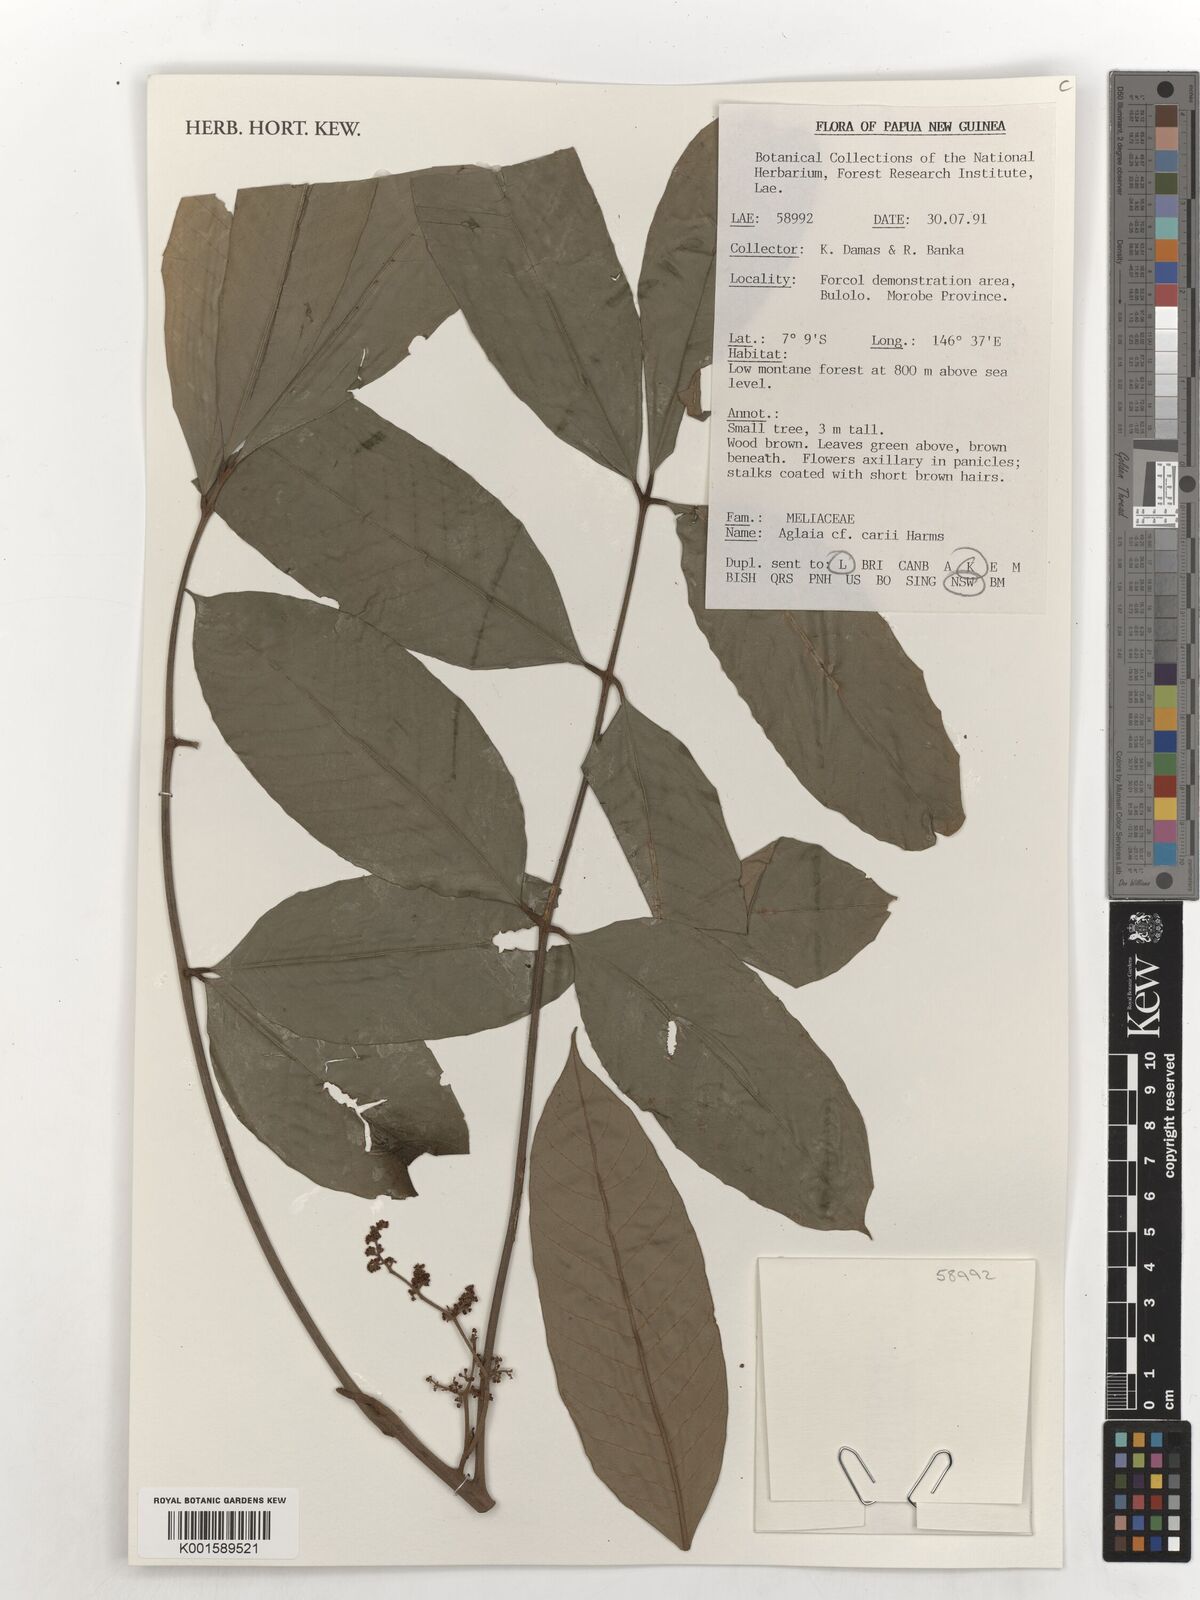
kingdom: Plantae
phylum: Tracheophyta
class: Magnoliopsida
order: Sapindales
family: Meliaceae
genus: Aglaia
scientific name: Aglaia subminutiflora
